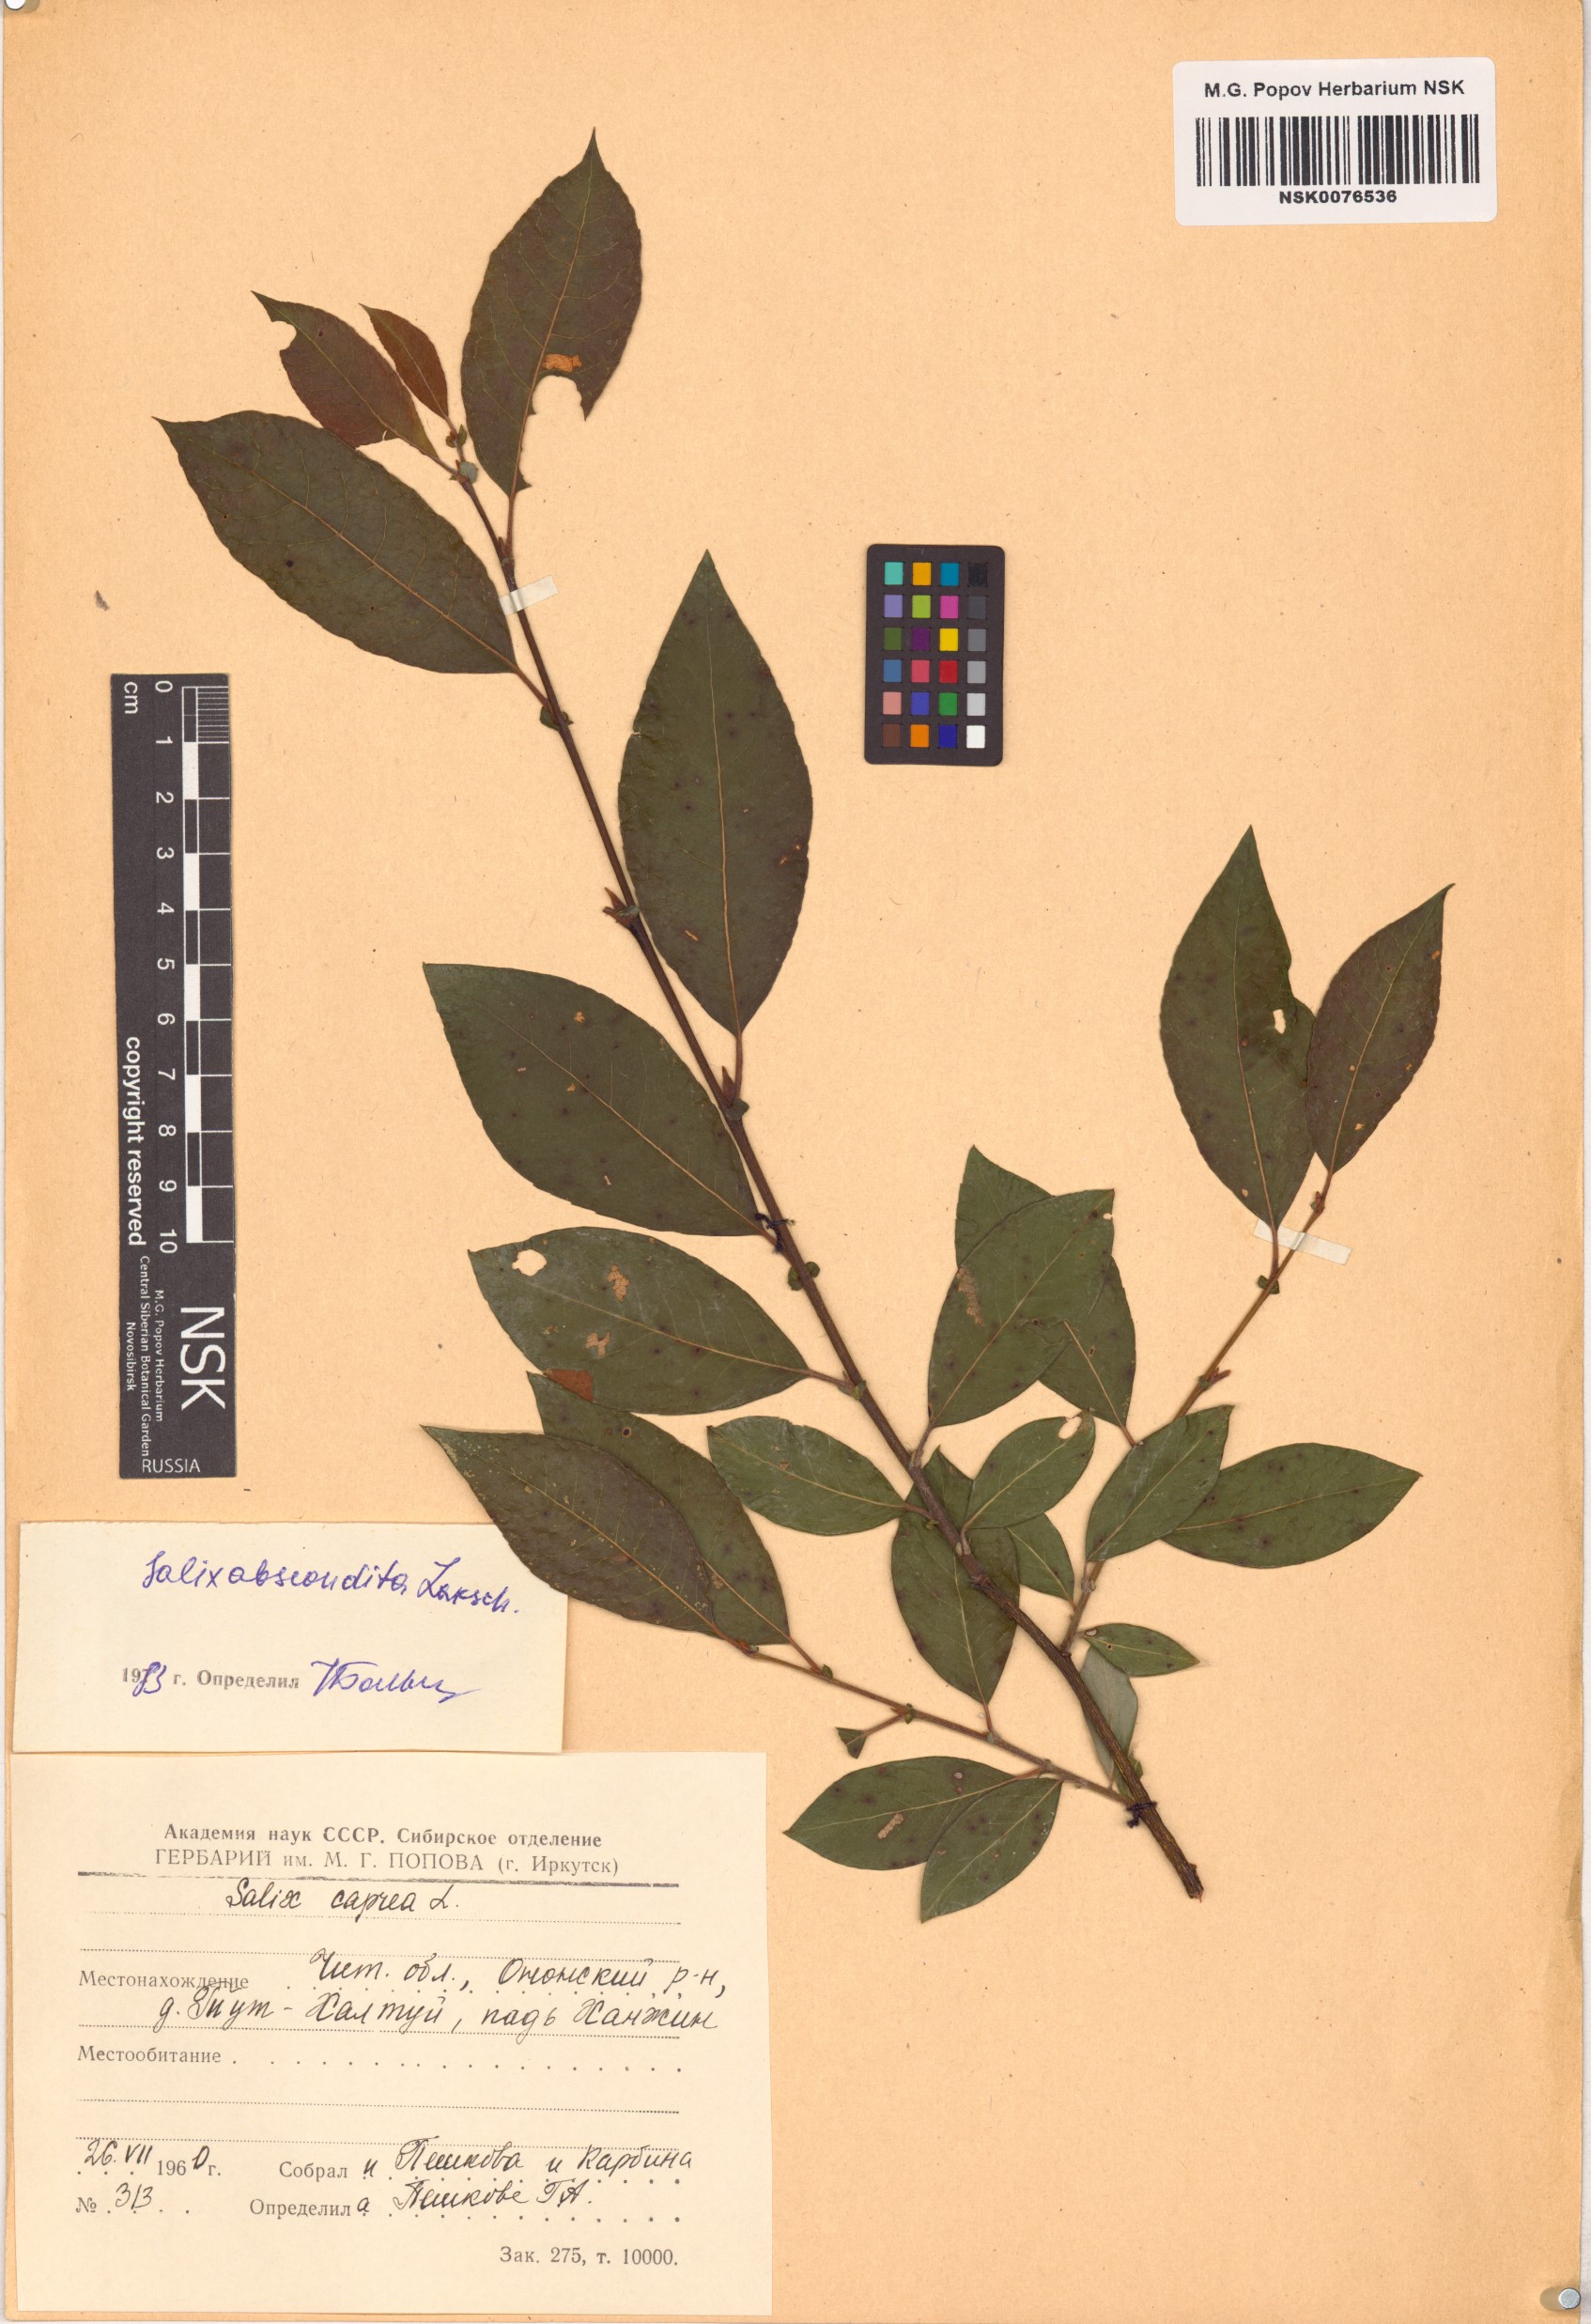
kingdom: Plantae
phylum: Tracheophyta
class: Magnoliopsida
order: Malpighiales
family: Salicaceae
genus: Salix
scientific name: Salix abscondita
